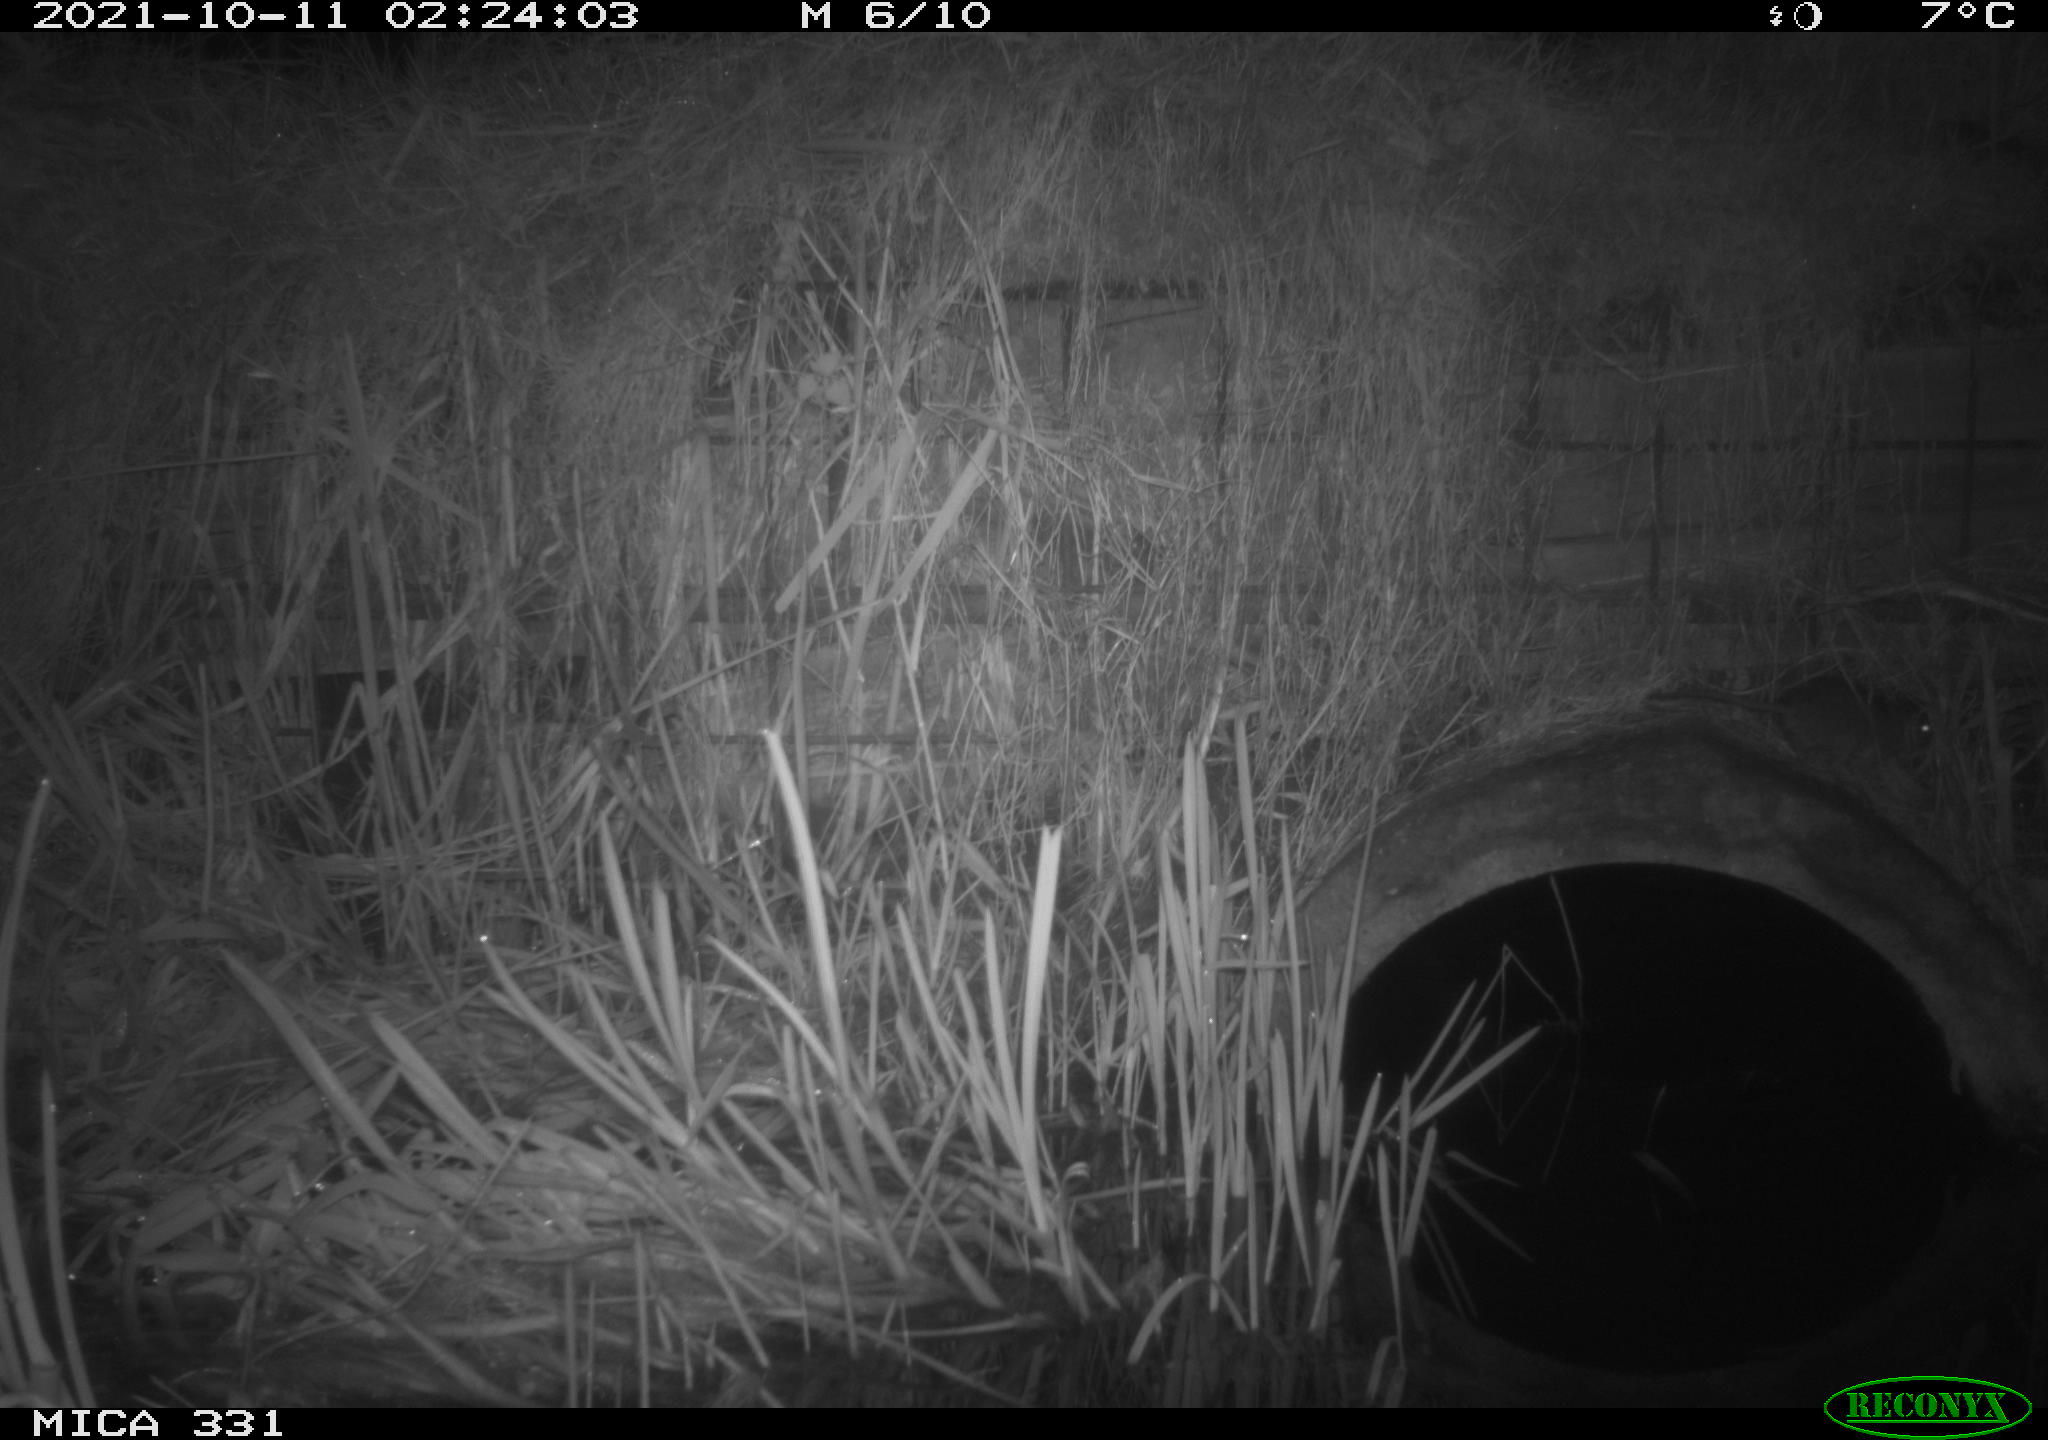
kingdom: Animalia
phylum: Chordata
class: Mammalia
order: Rodentia
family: Muridae
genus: Rattus
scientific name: Rattus norvegicus
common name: Brown rat
